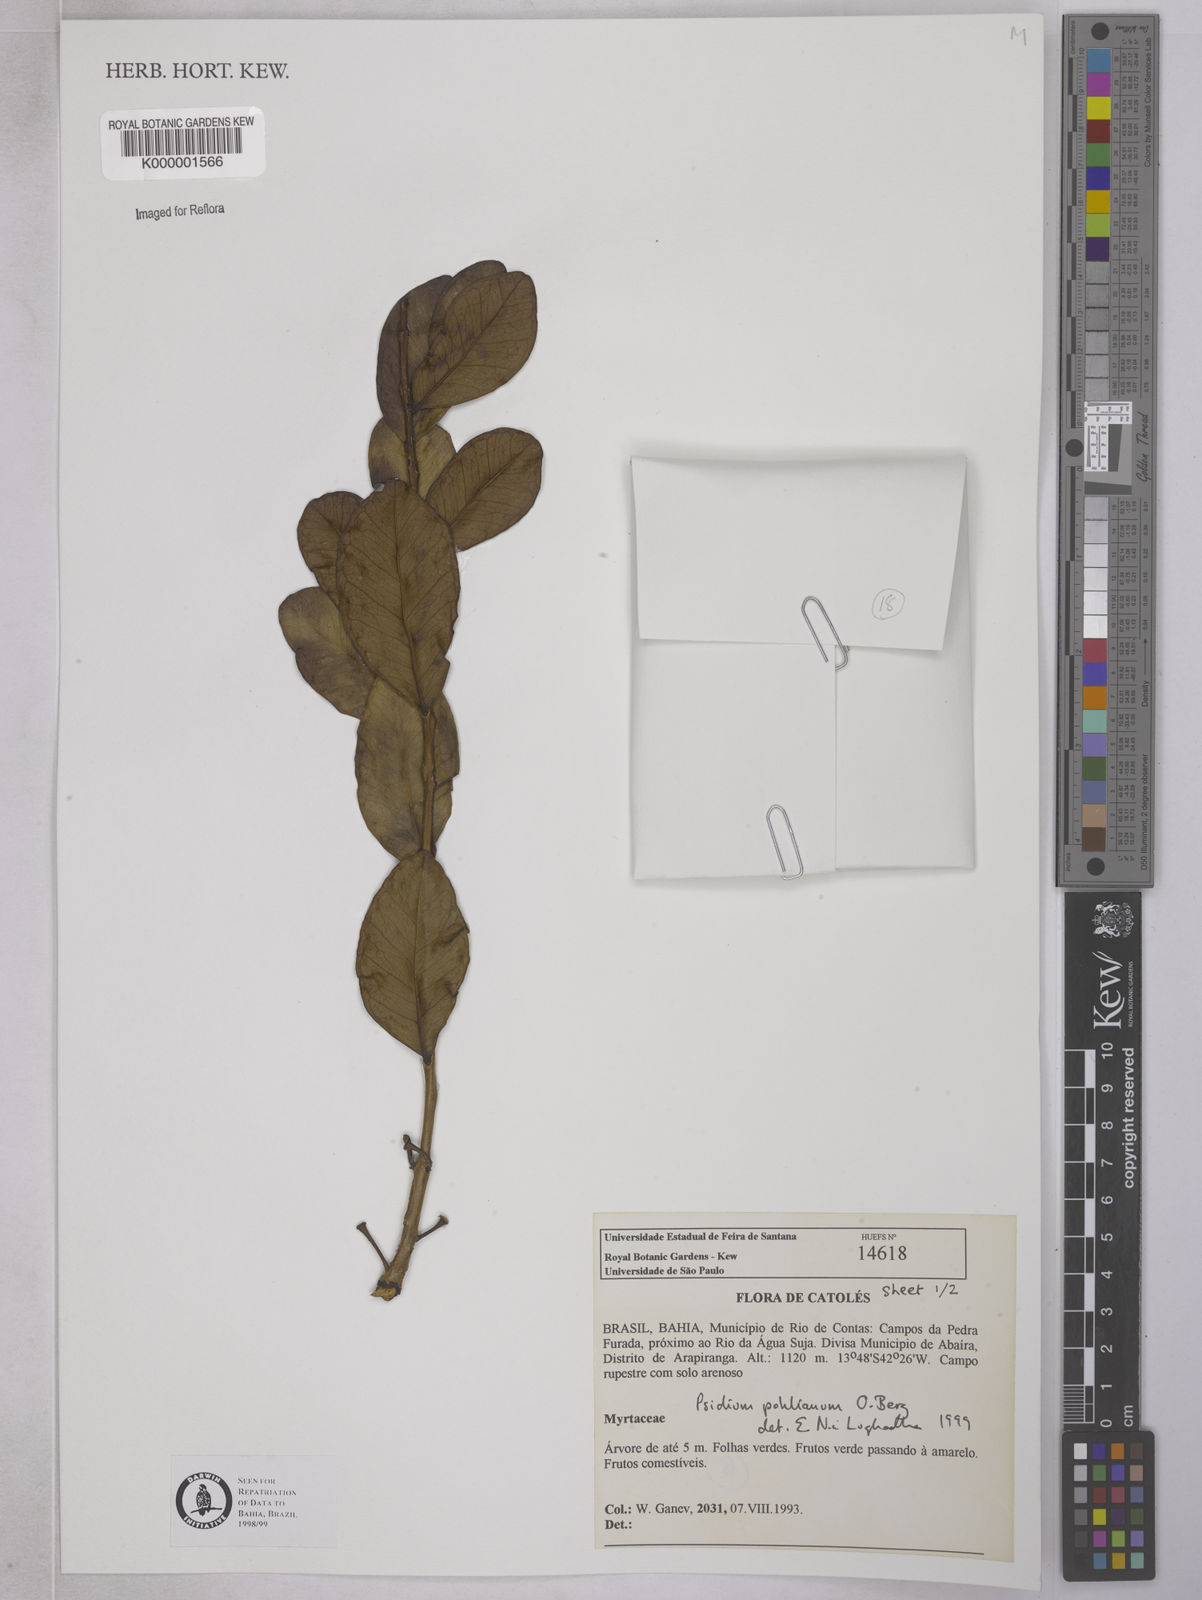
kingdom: Plantae
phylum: Tracheophyta
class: Magnoliopsida
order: Myrtales
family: Myrtaceae
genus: Psidium
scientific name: Psidium salutare
